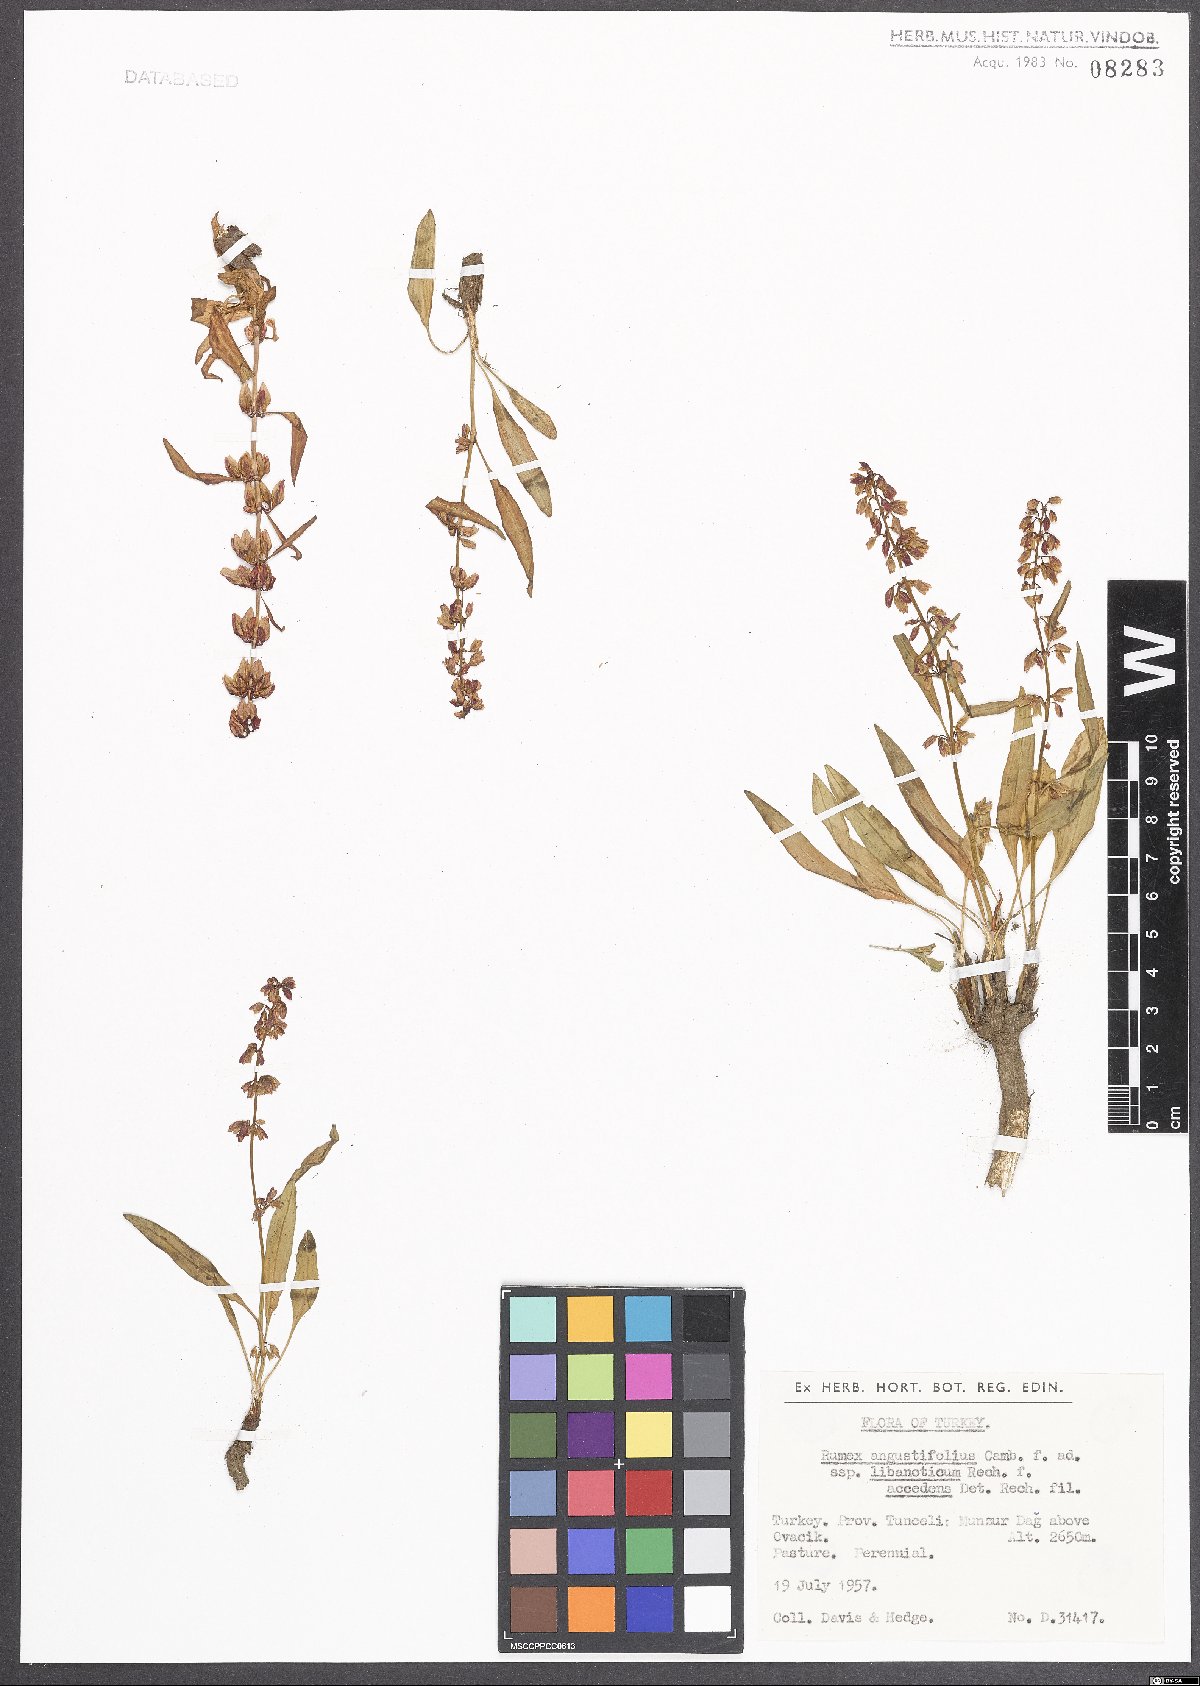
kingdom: Plantae
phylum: Tracheophyta
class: Magnoliopsida
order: Caryophyllales
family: Polygonaceae
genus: Rumex
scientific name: Rumex angustifolius
